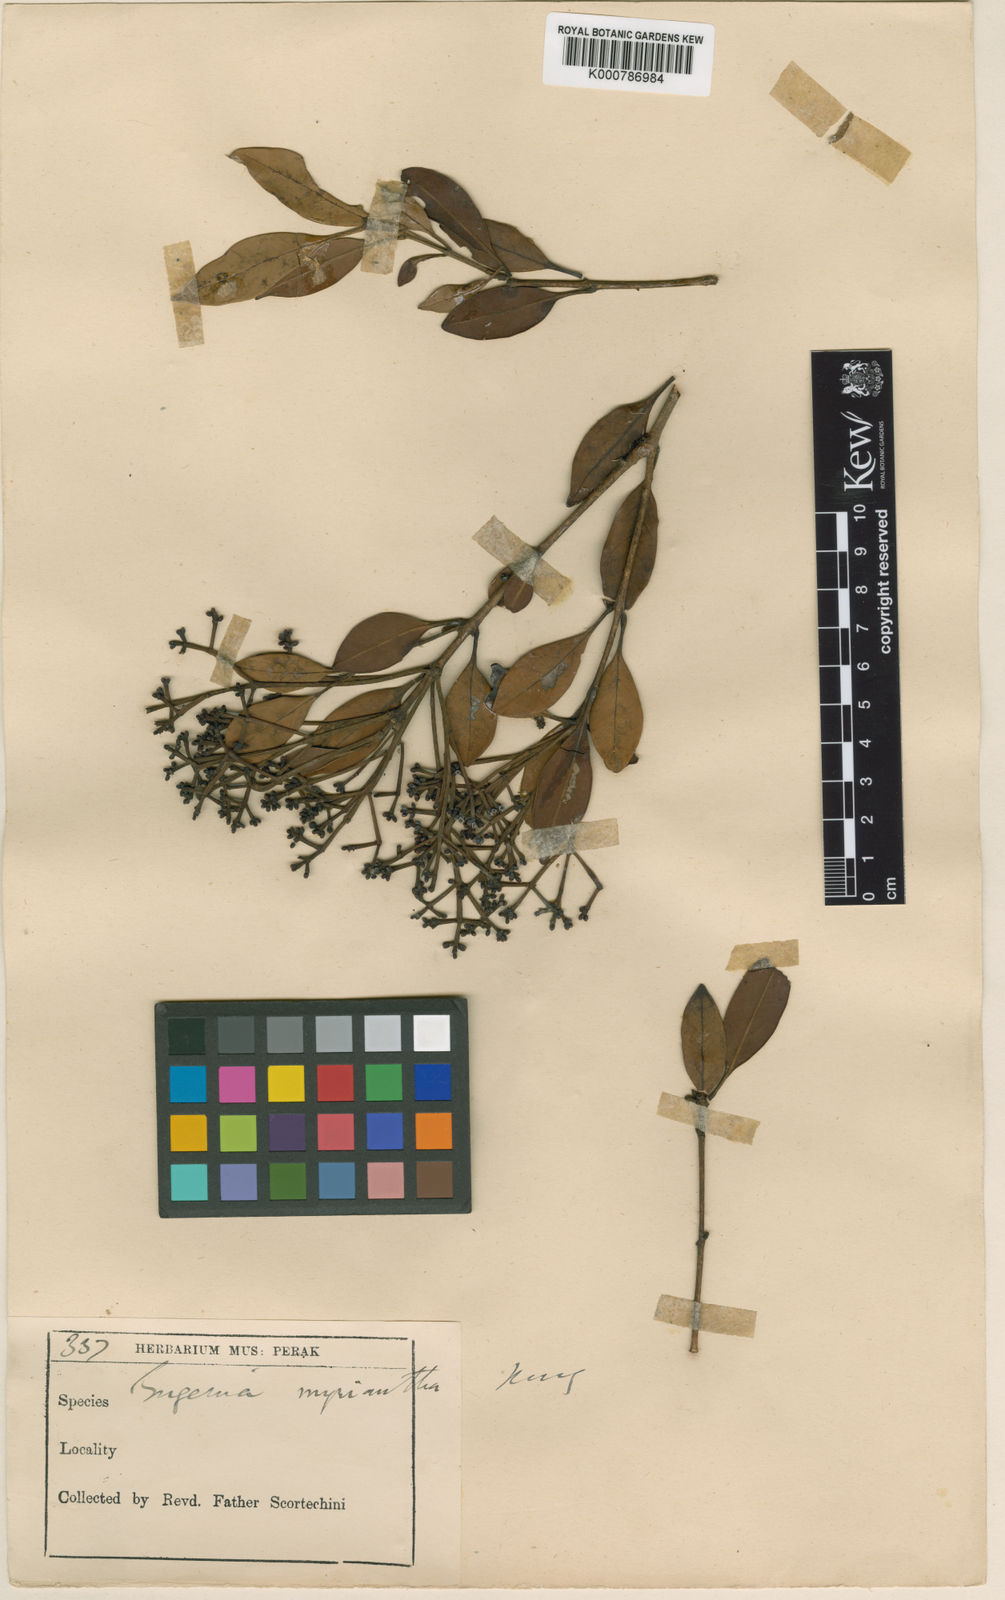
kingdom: Plantae
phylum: Tracheophyta
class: Magnoliopsida
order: Myrtales
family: Myrtaceae
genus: Syzygium
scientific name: Syzygium myrianthum
